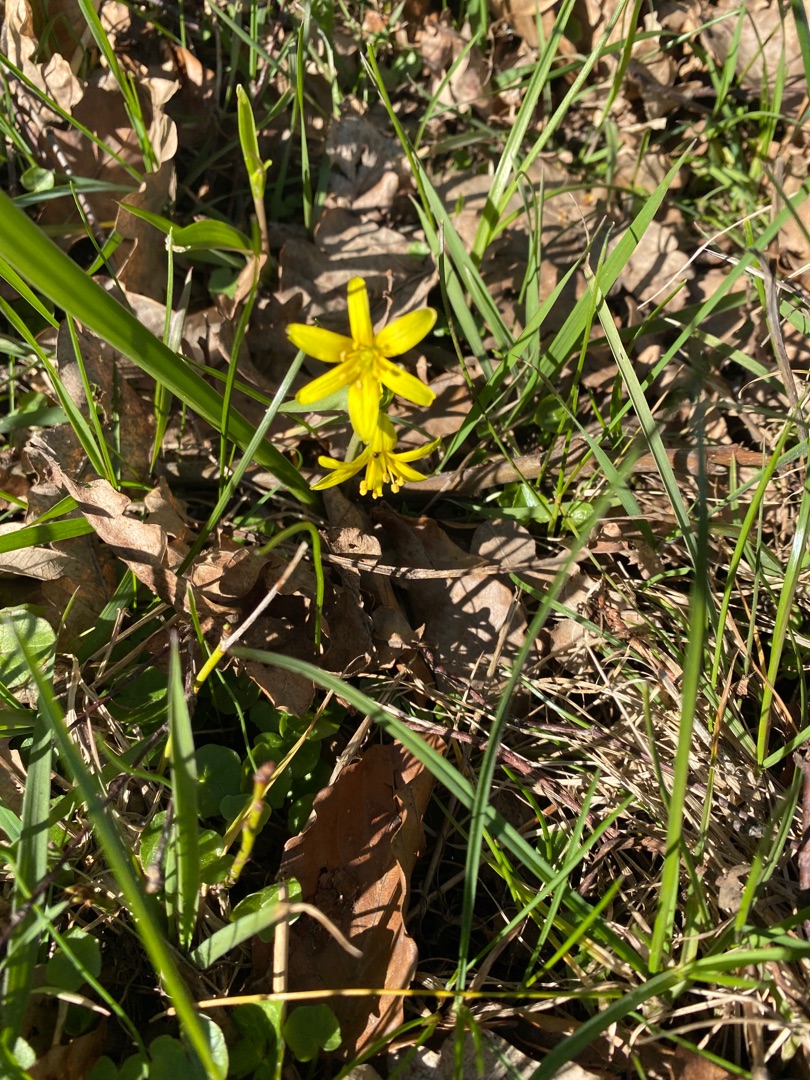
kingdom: Plantae
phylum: Tracheophyta
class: Liliopsida
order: Liliales
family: Liliaceae
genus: Gagea
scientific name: Gagea lutea
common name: Almindelig guldstjerne
